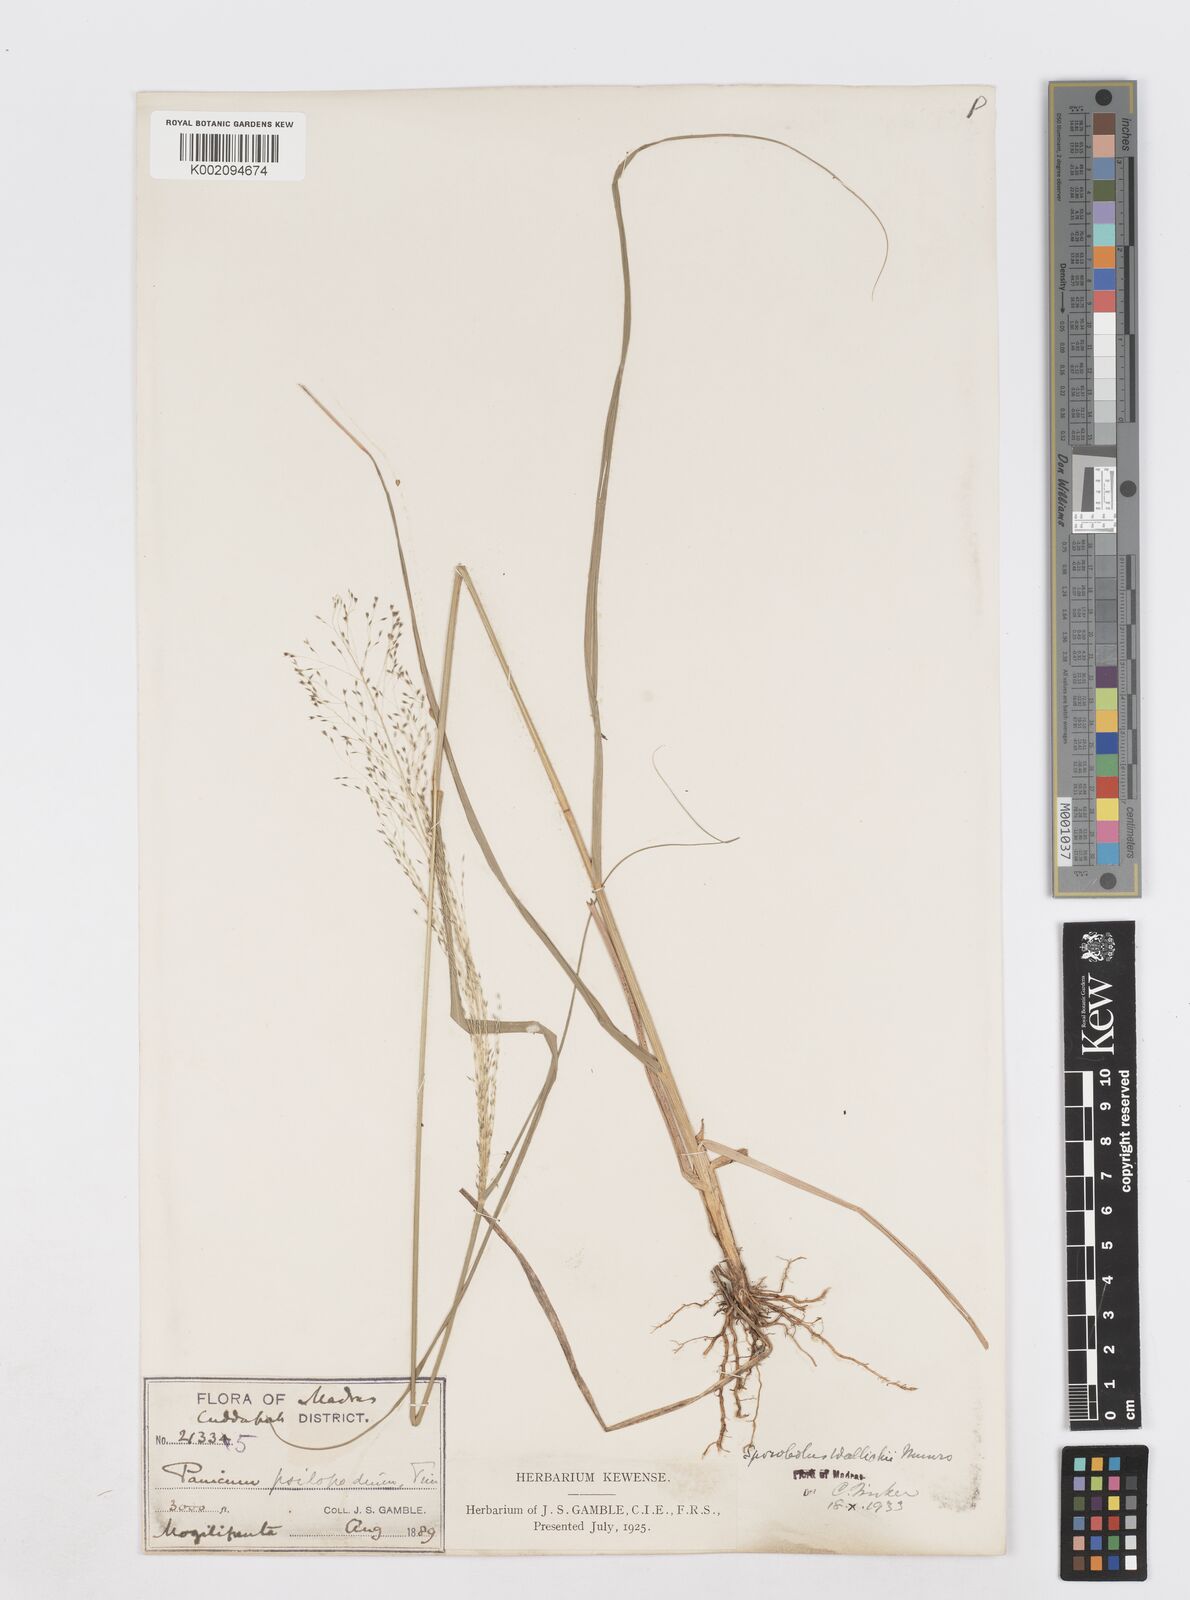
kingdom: Plantae
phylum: Tracheophyta
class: Liliopsida
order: Poales
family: Poaceae
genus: Sporobolus
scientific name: Sporobolus wallichii
